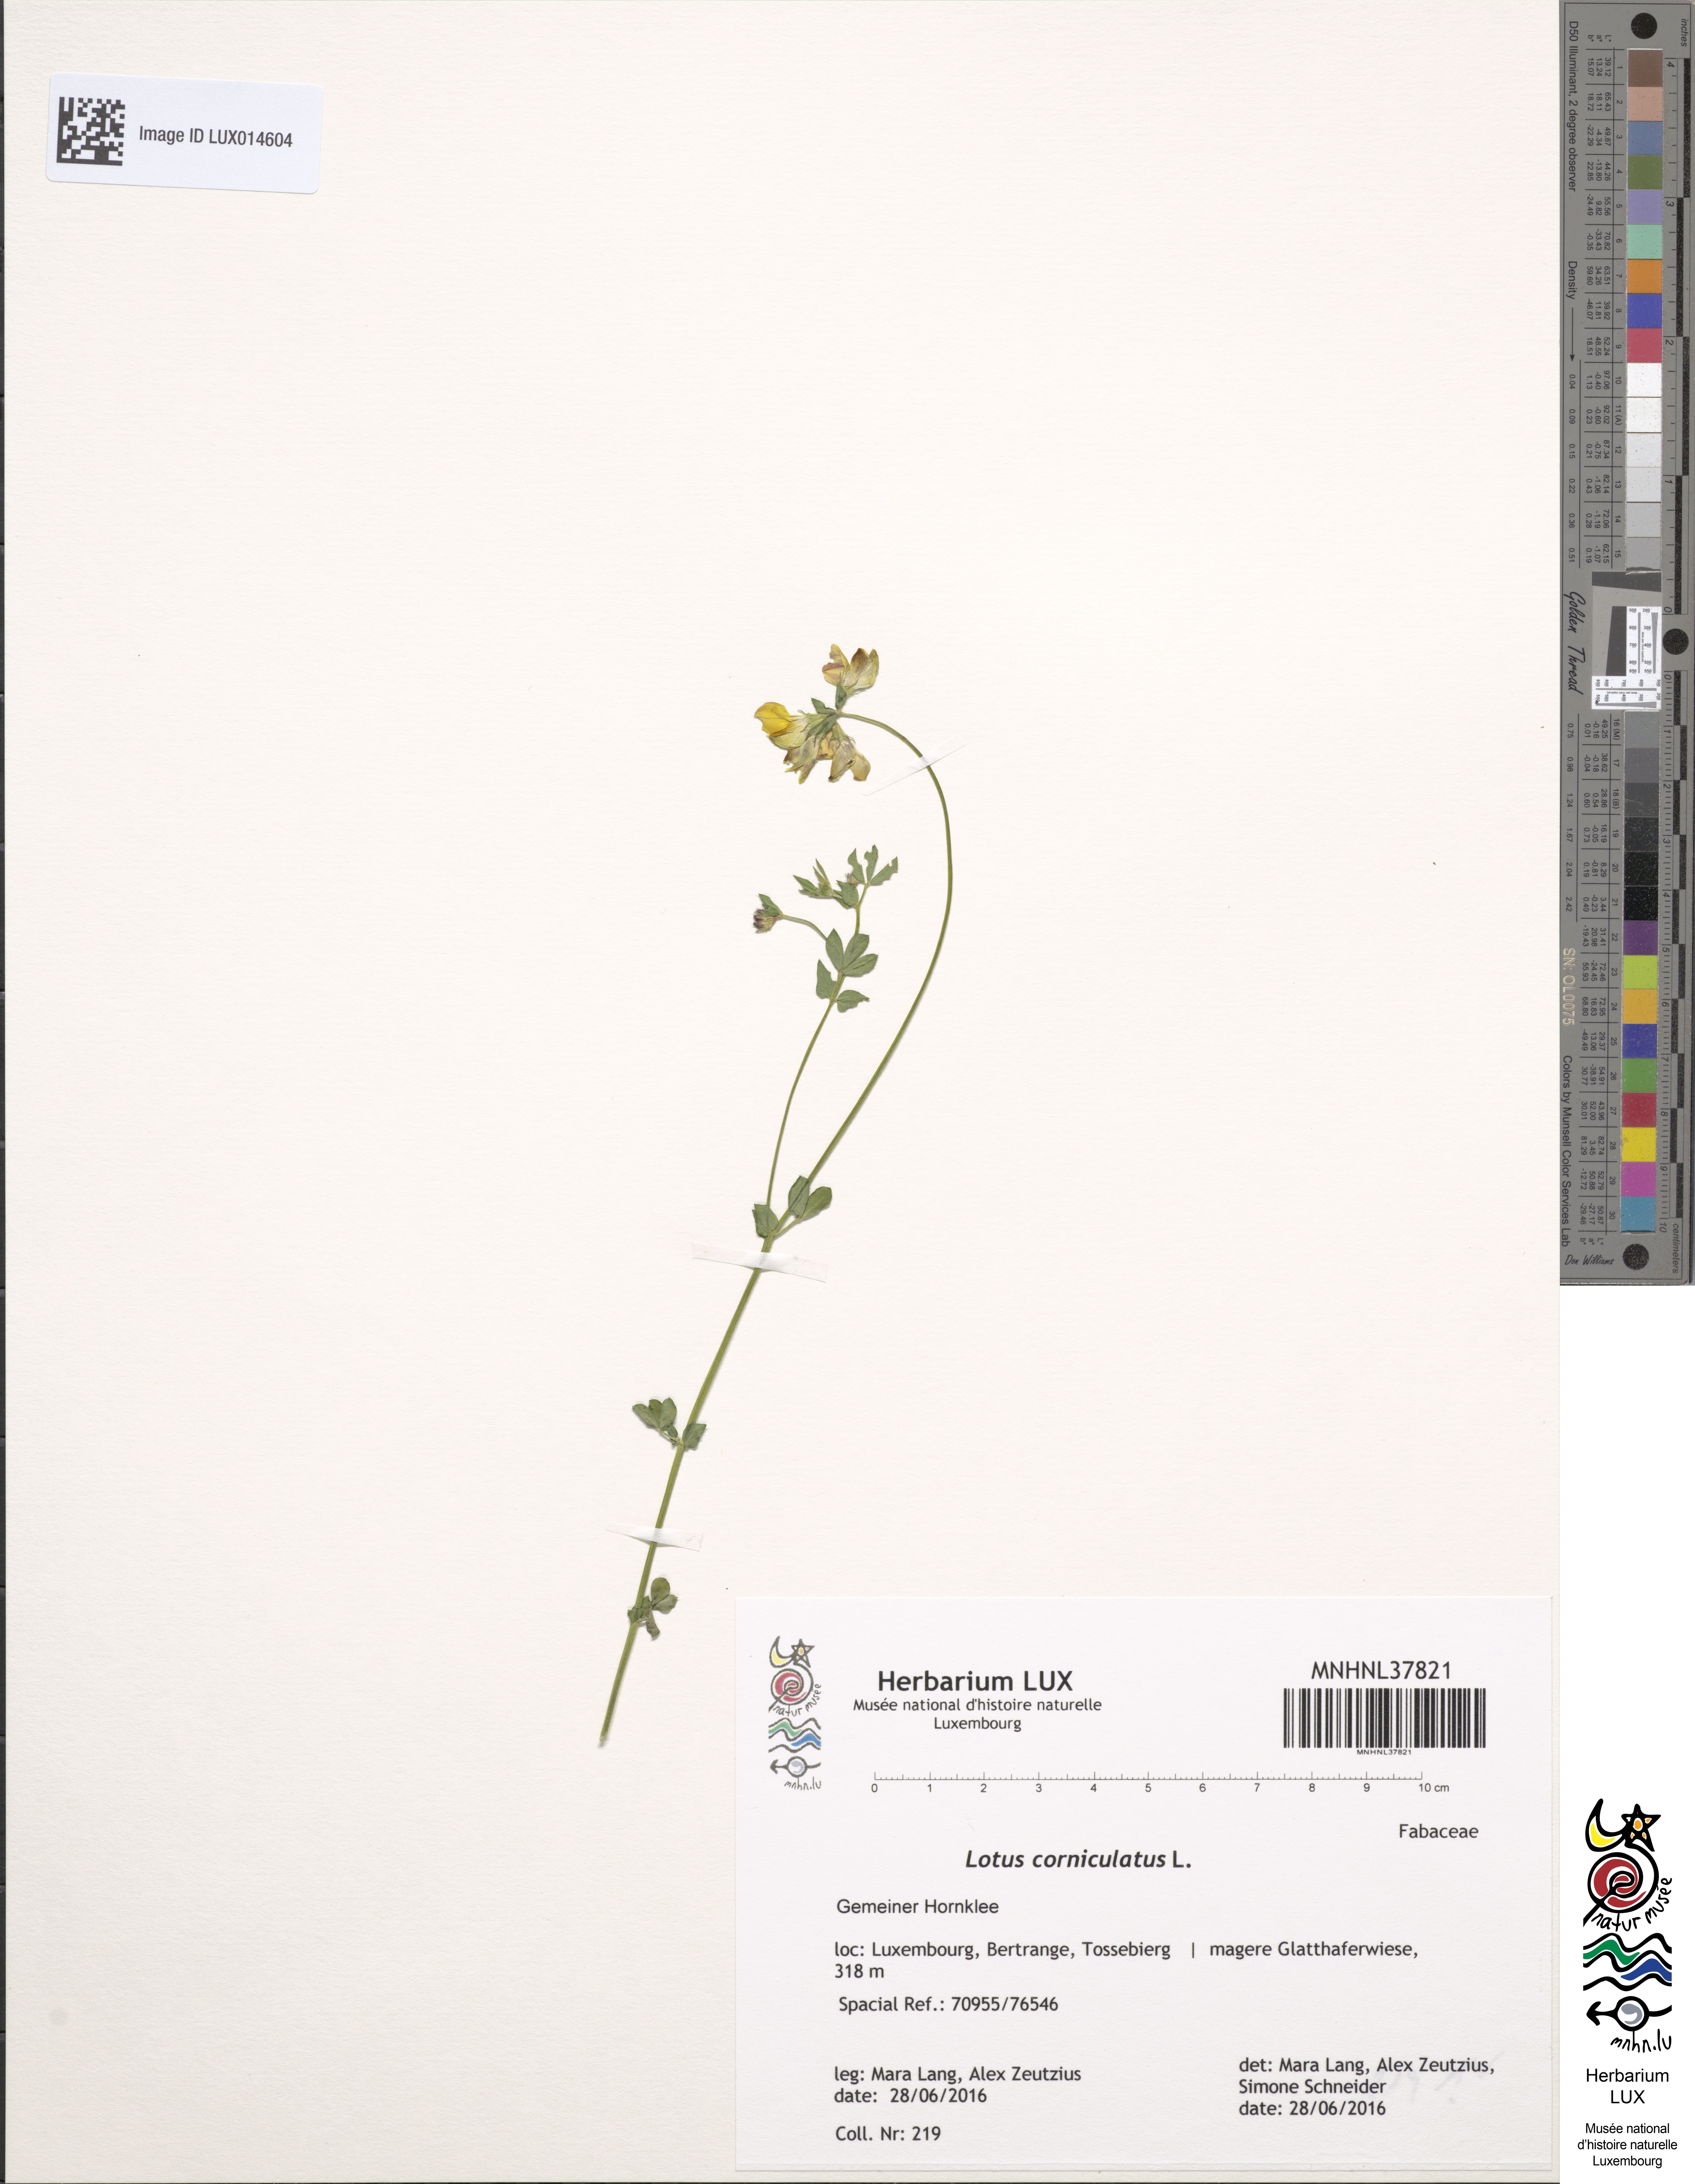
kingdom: Plantae
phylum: Tracheophyta
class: Magnoliopsida
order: Fabales
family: Fabaceae
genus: Lotus
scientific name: Lotus corniculatus
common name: Common bird's-foot-trefoil
